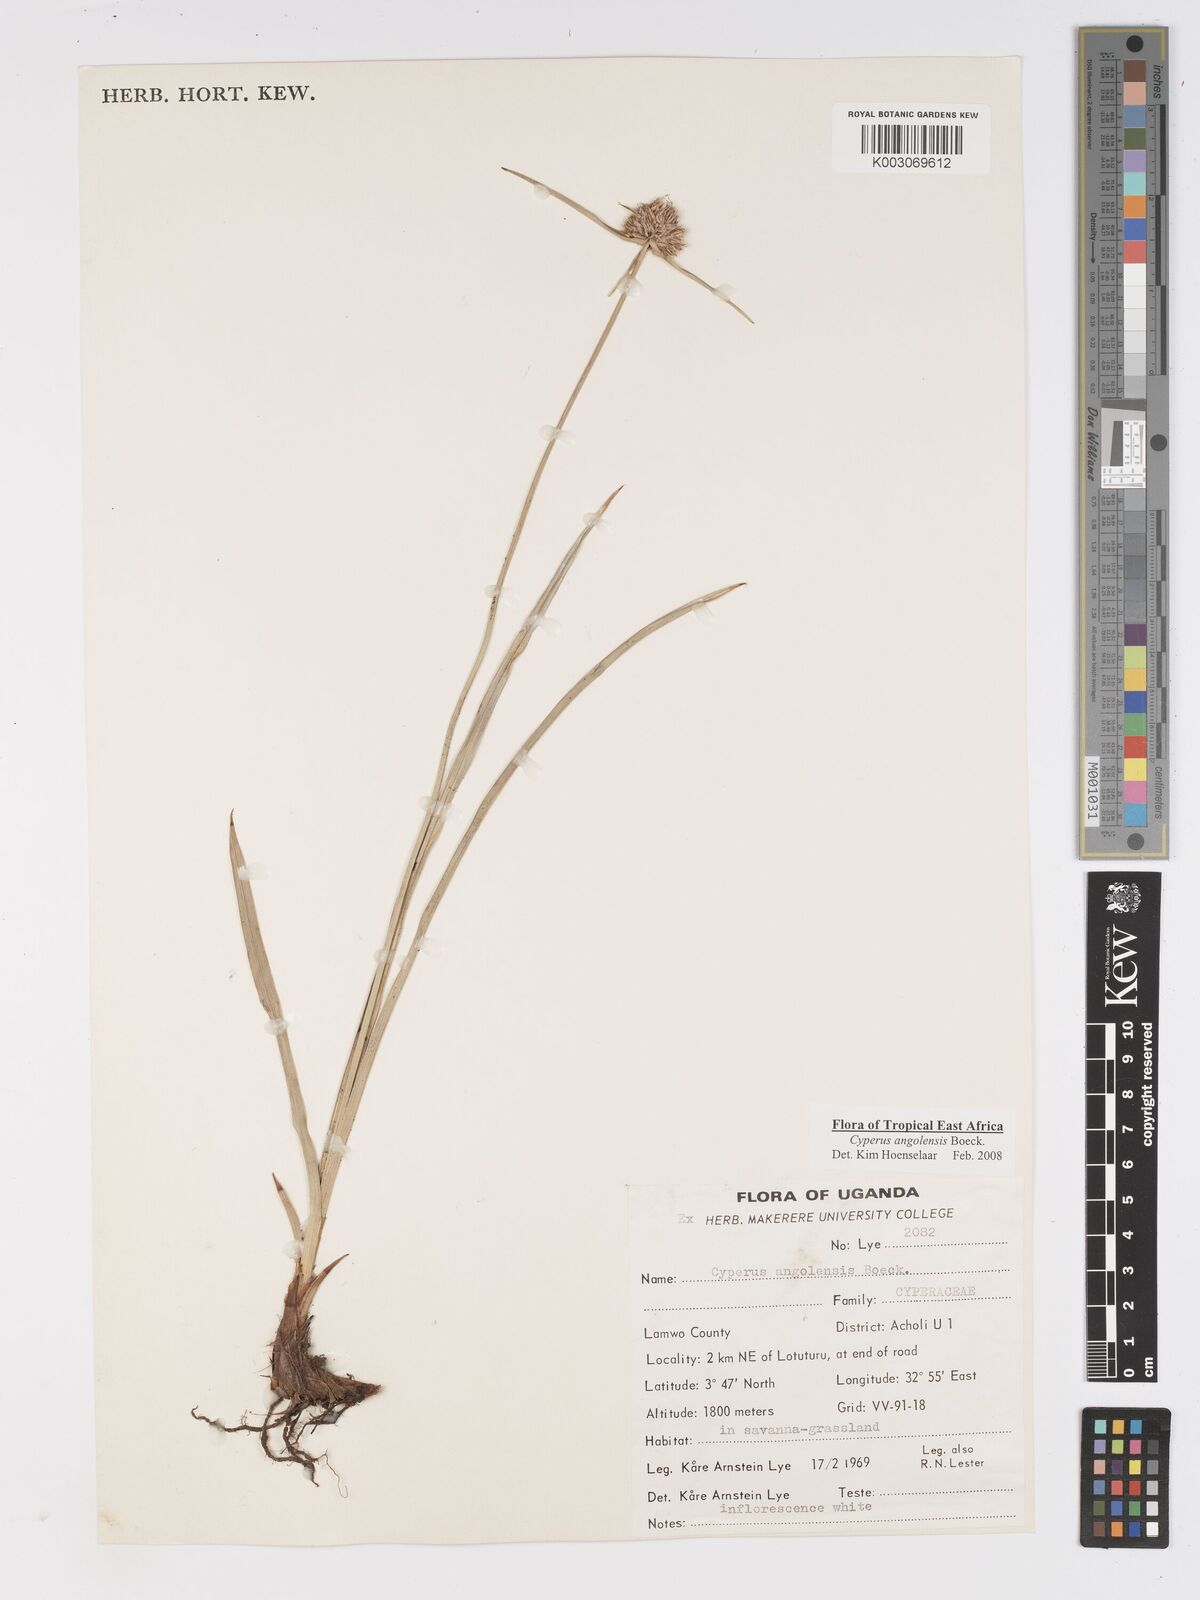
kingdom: Plantae
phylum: Tracheophyta
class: Liliopsida
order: Poales
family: Cyperaceae
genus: Cyperus
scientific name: Cyperus angolensis
